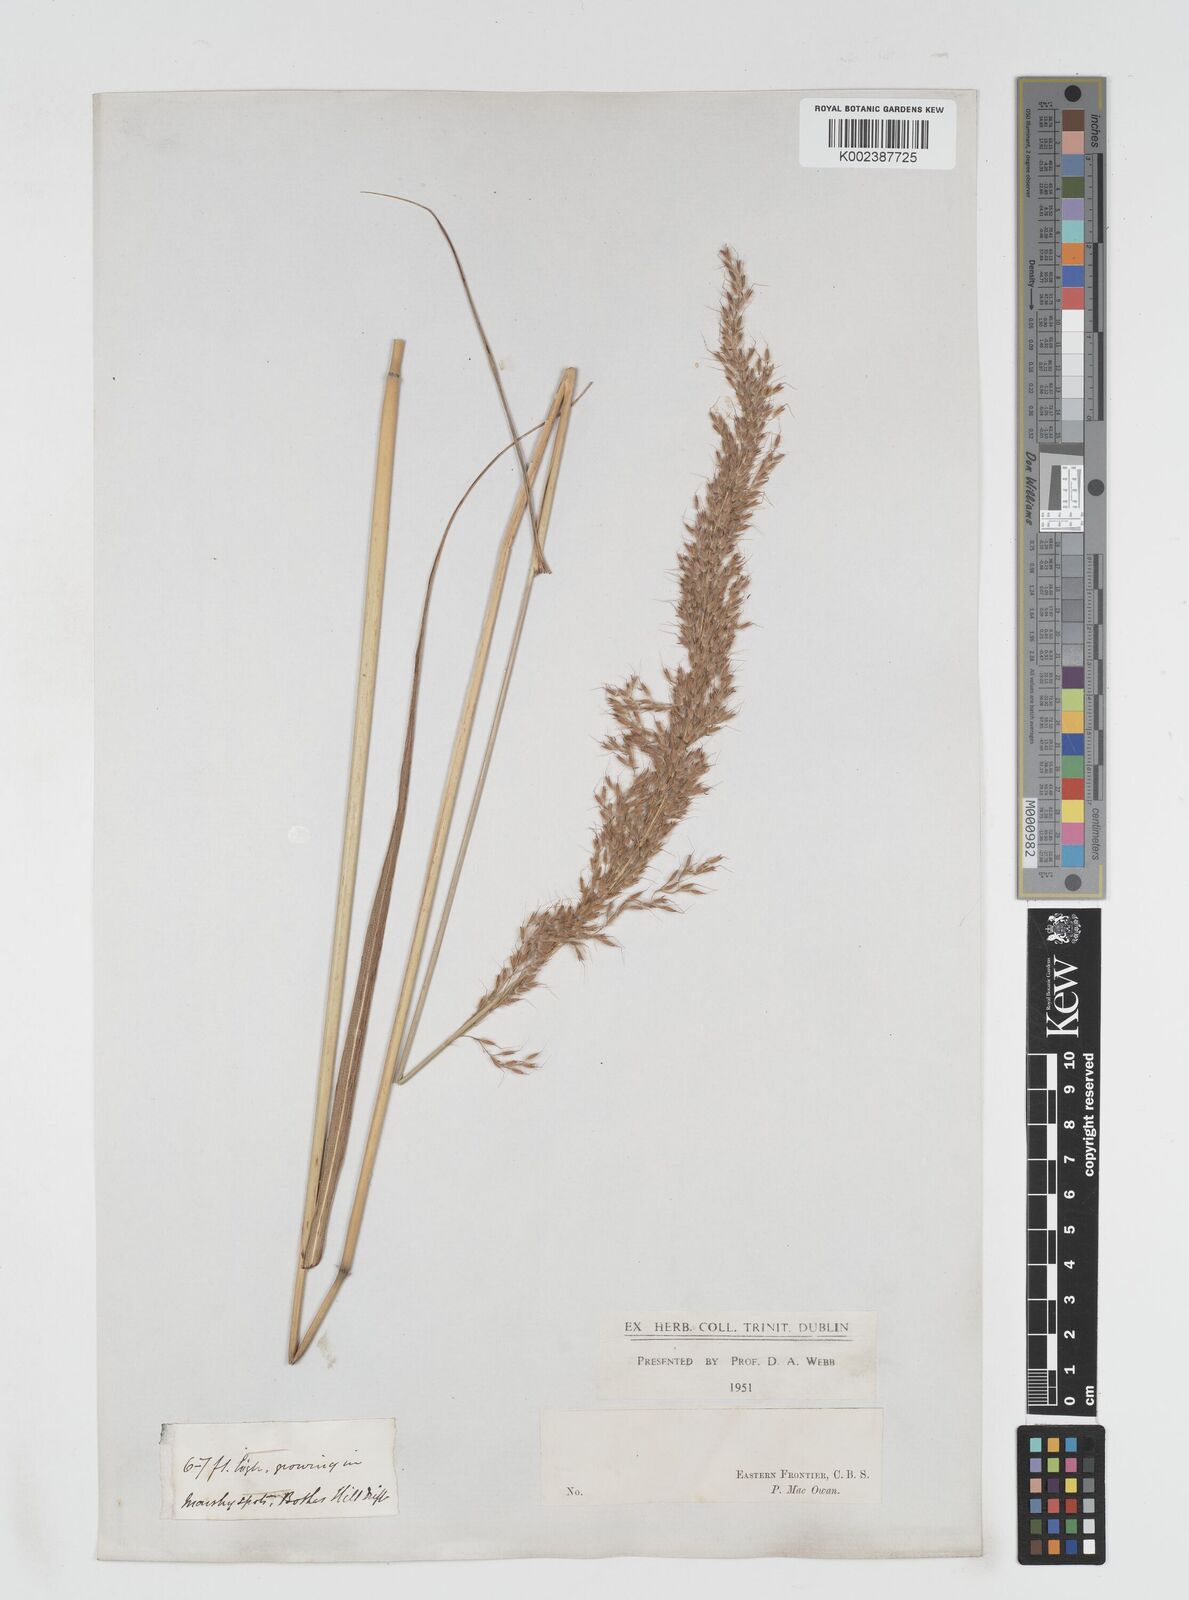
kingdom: Plantae
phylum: Tracheophyta
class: Liliopsida
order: Poales
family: Poaceae
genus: Miscanthus
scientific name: Miscanthus ecklonii
